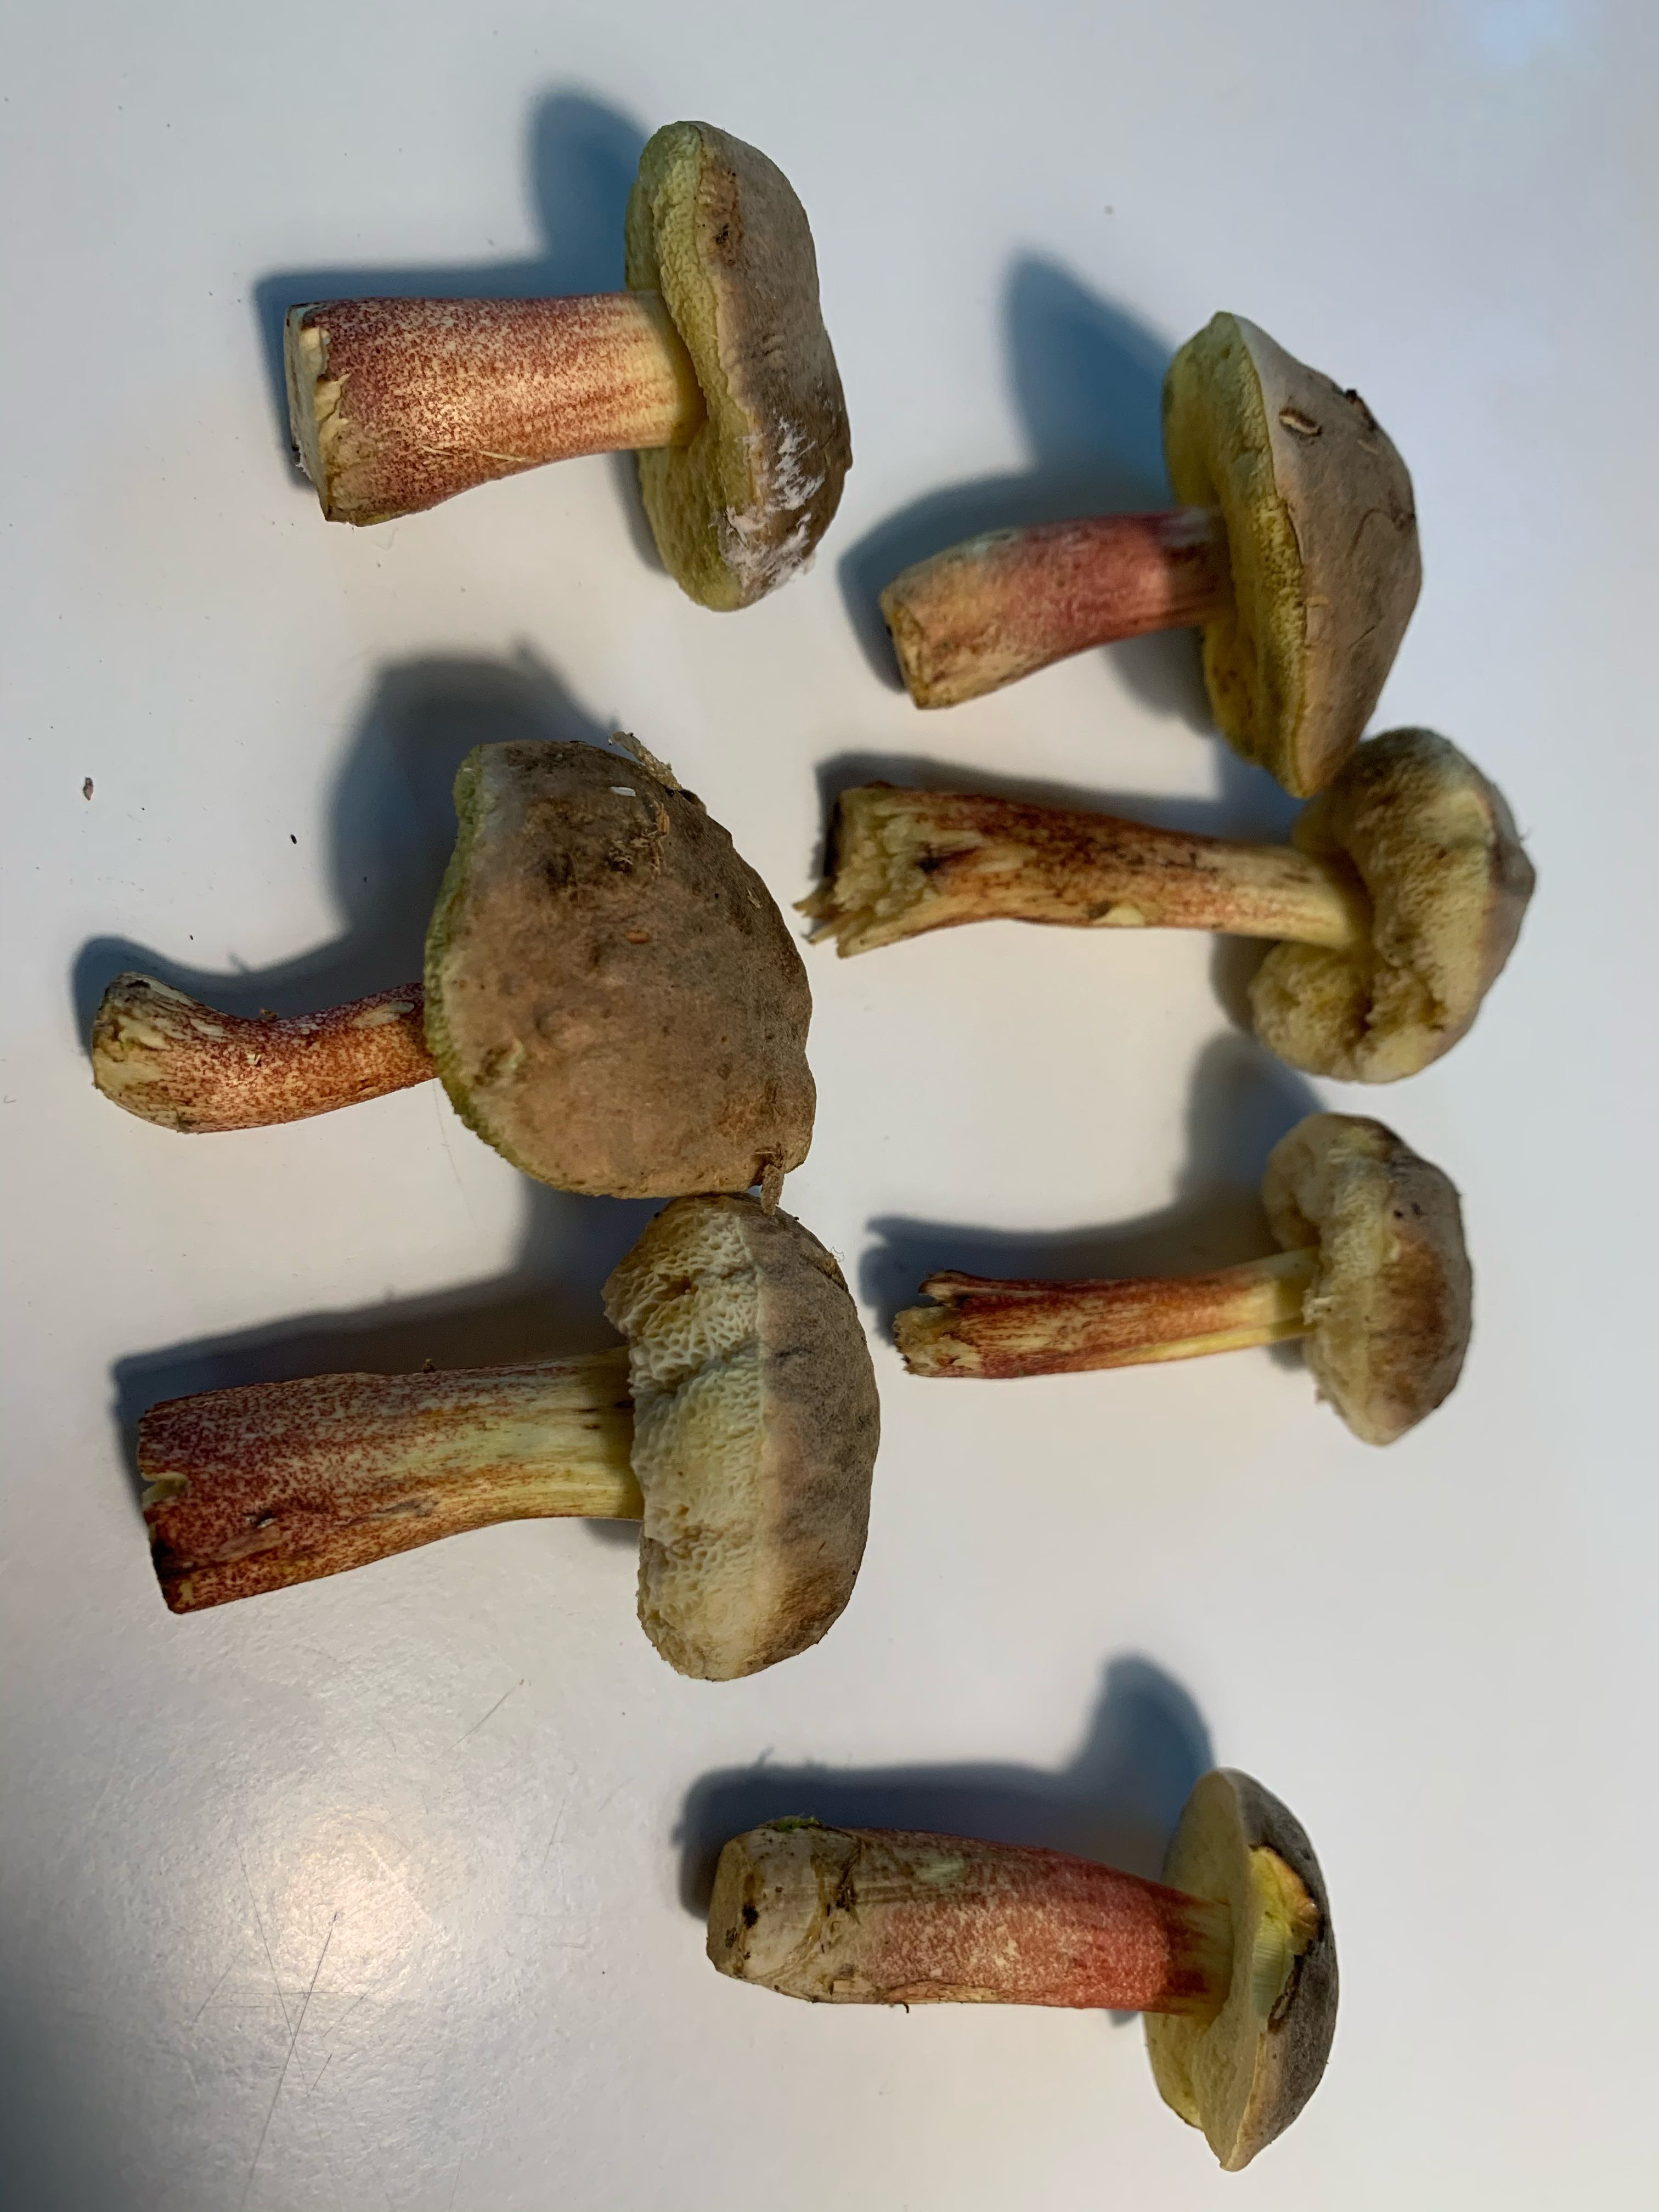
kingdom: Fungi
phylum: Basidiomycota
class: Agaricomycetes
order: Boletales
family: Boletaceae
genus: Xerocomellus
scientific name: Xerocomellus pruinatus
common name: dugget rørhat
